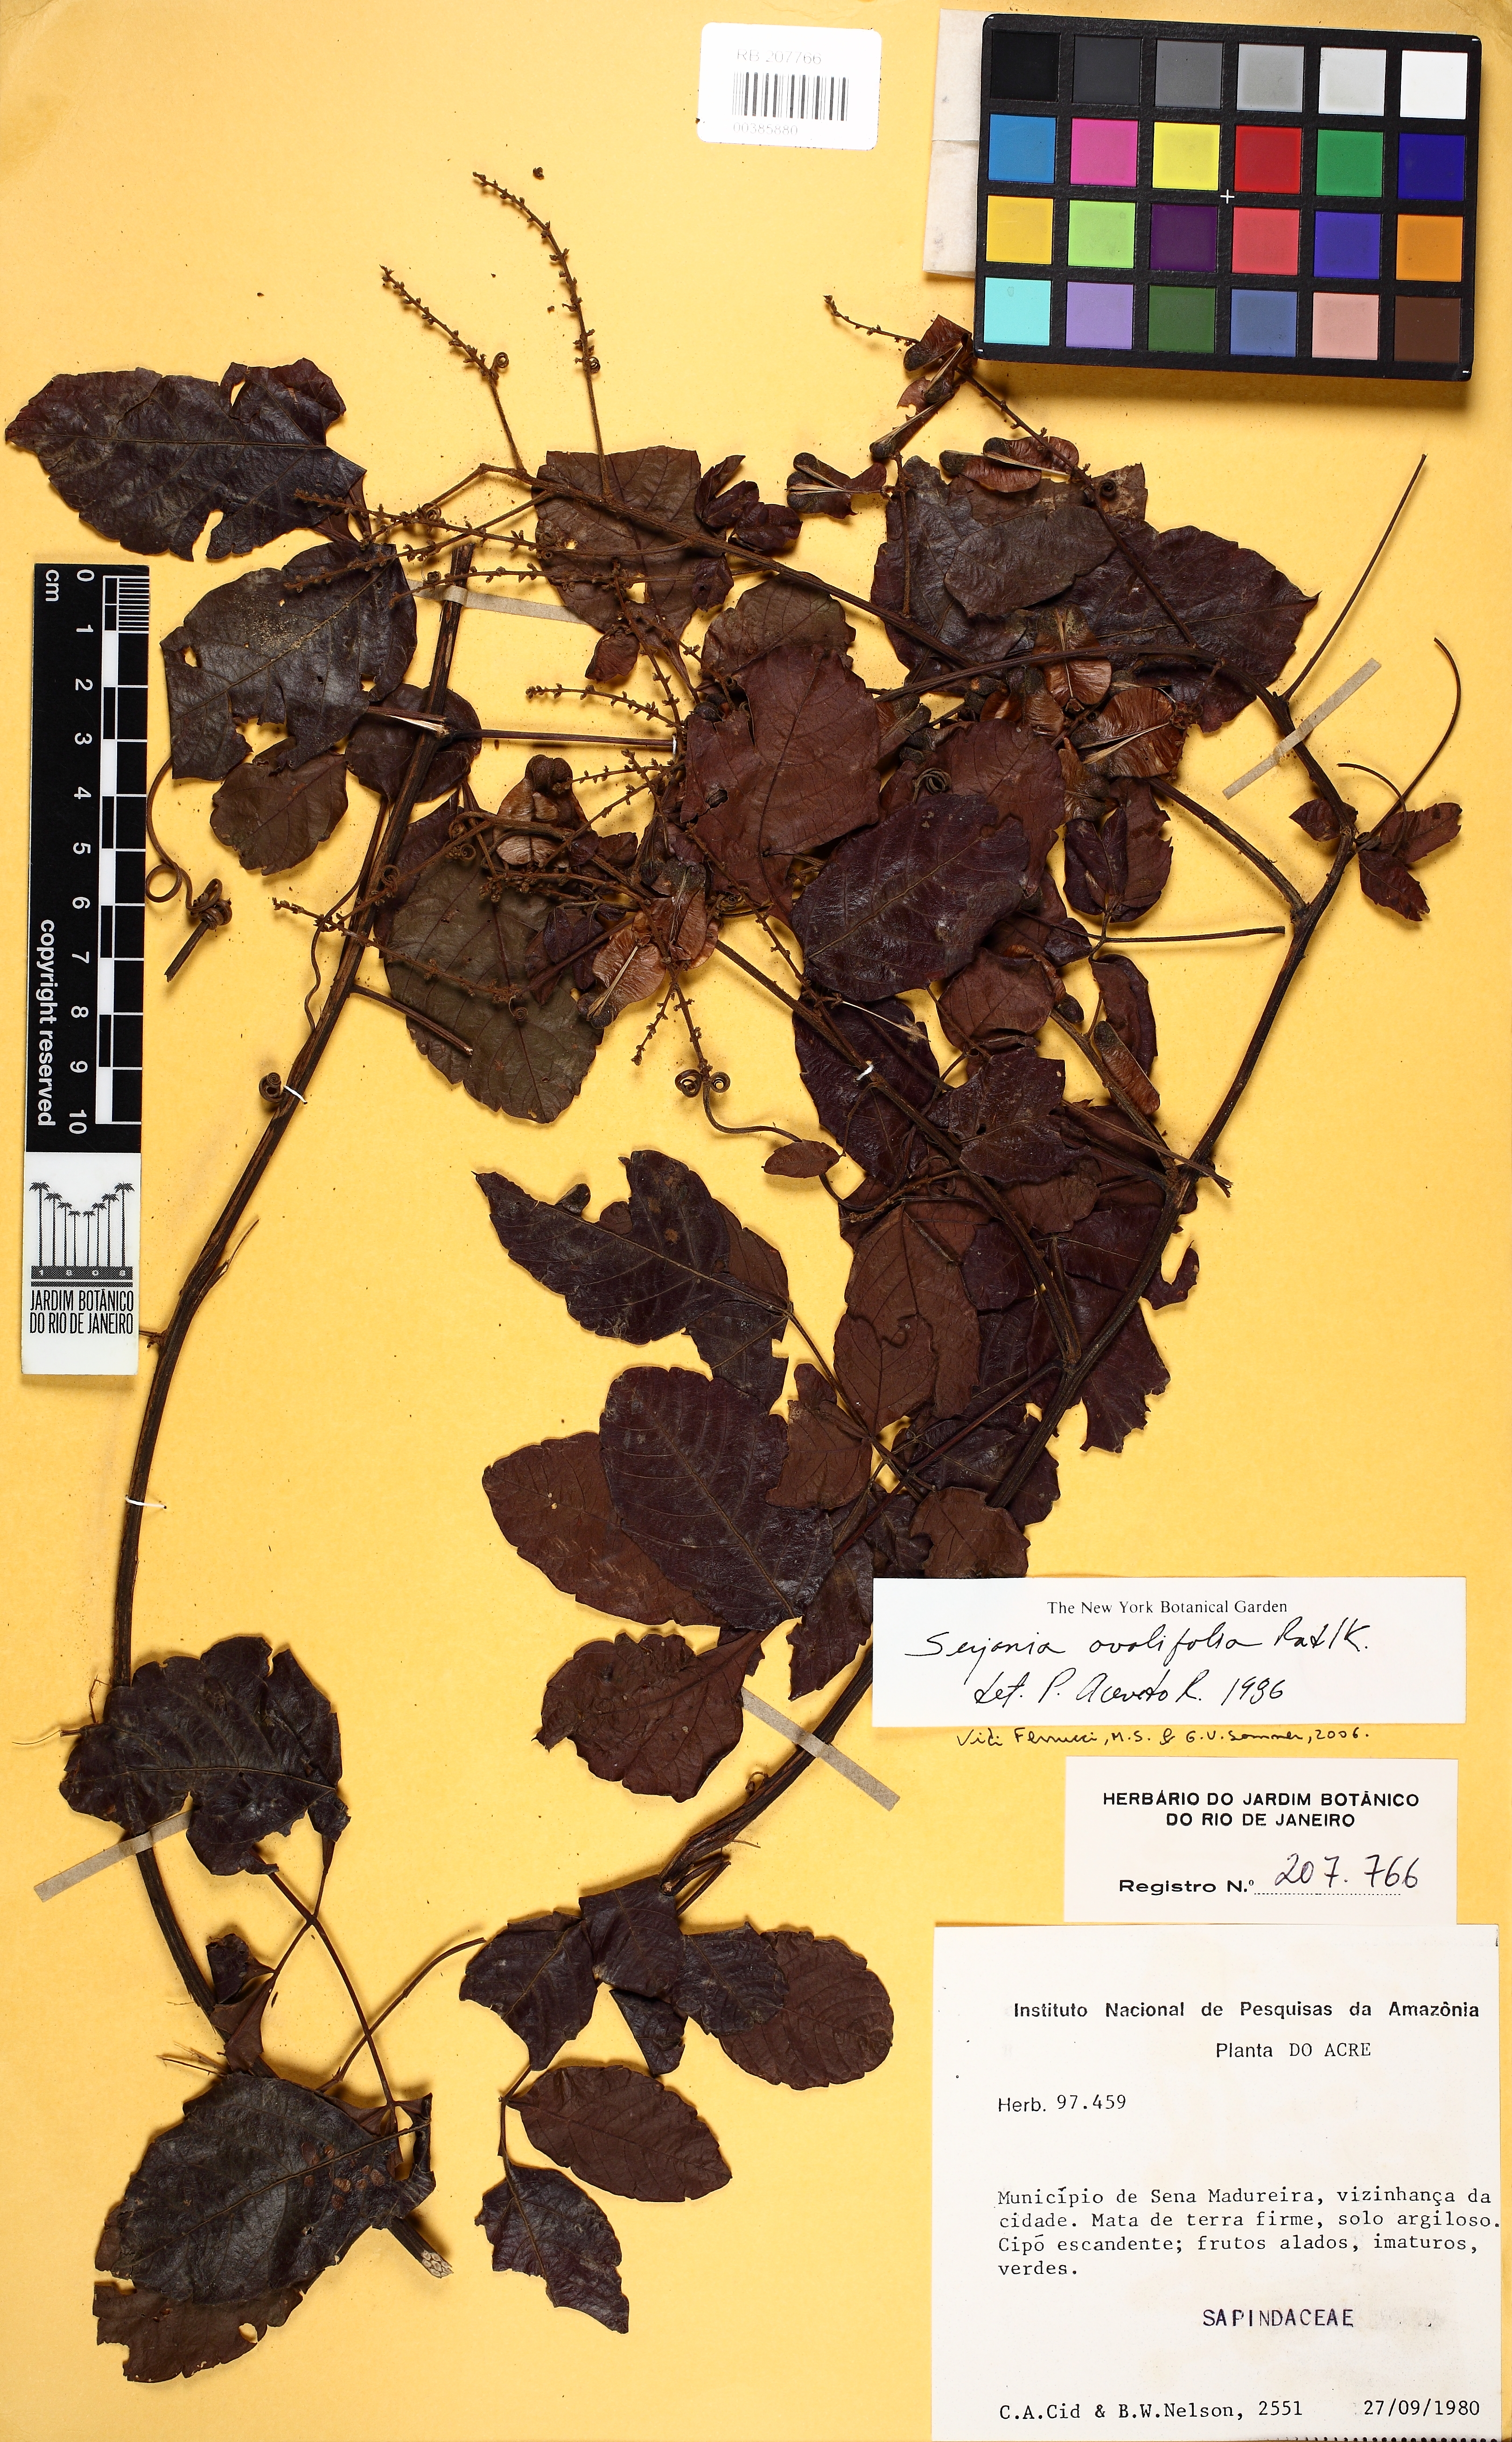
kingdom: Plantae
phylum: Tracheophyta
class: Magnoliopsida
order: Sapindales
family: Sapindaceae
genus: Serjania
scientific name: Serjania ovalifolia
